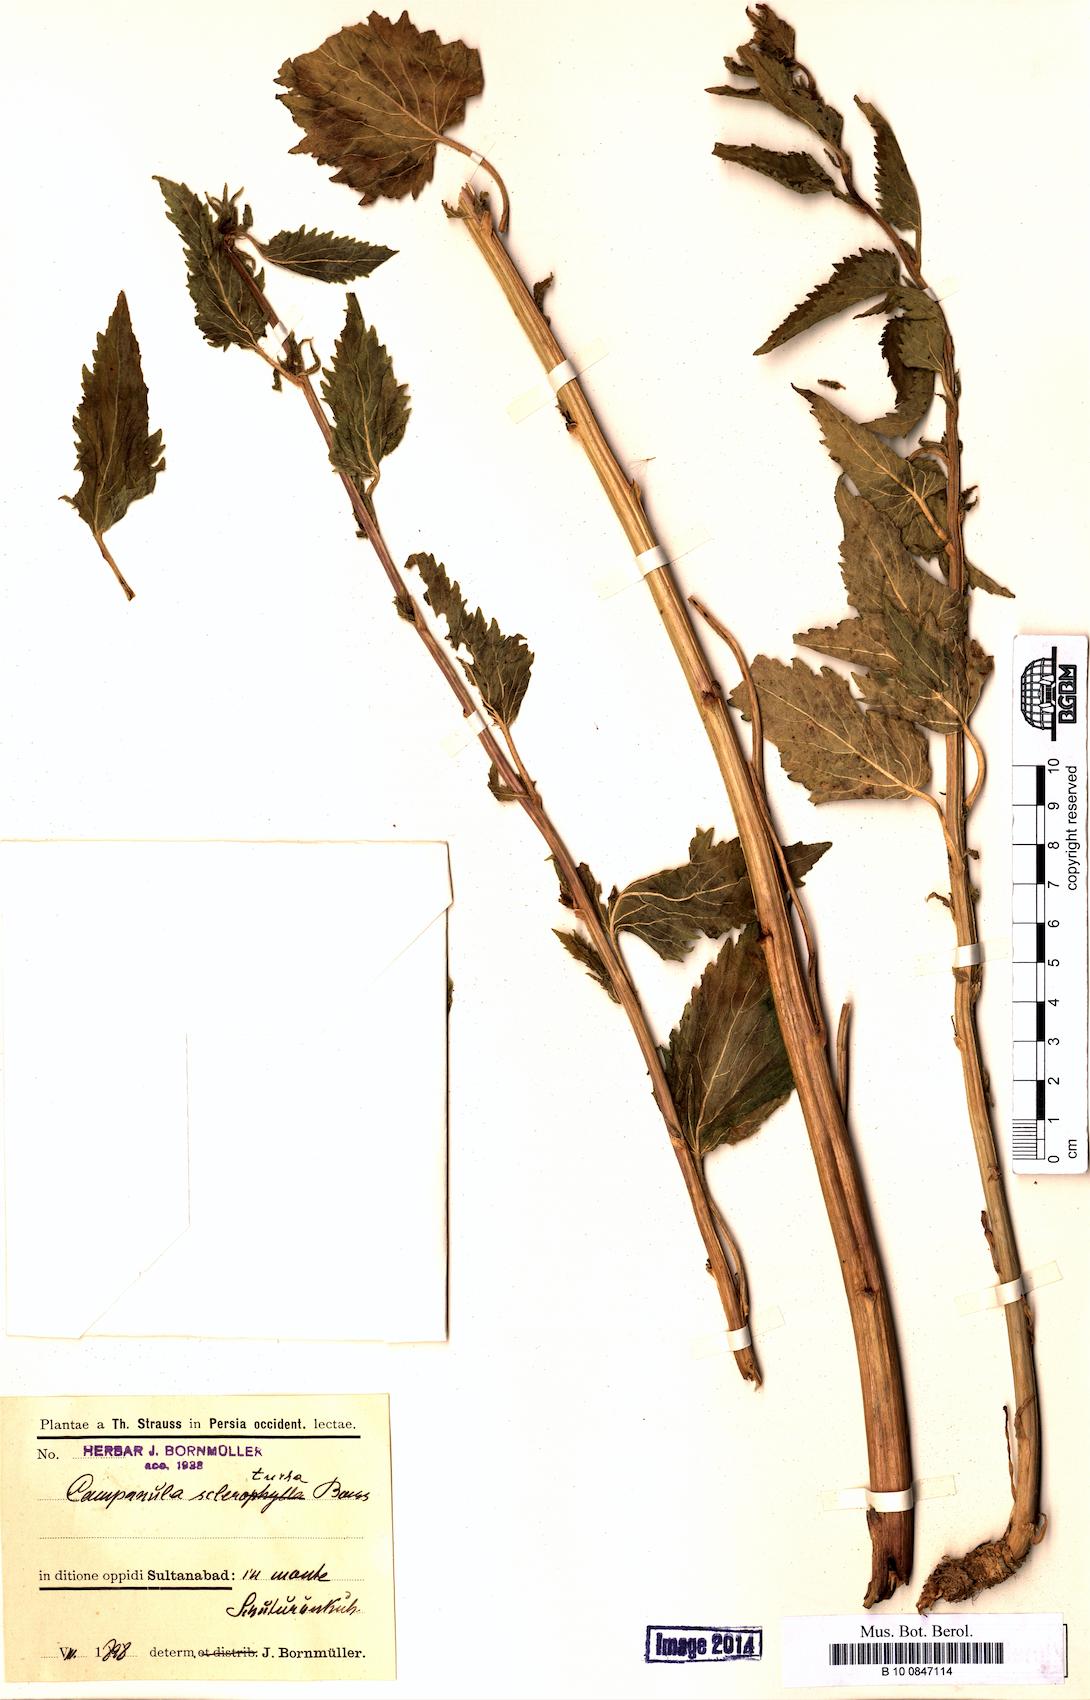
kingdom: Plantae
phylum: Tracheophyta
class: Magnoliopsida
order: Asterales
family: Campanulaceae
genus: Campanula
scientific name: Campanula sclerotricha
